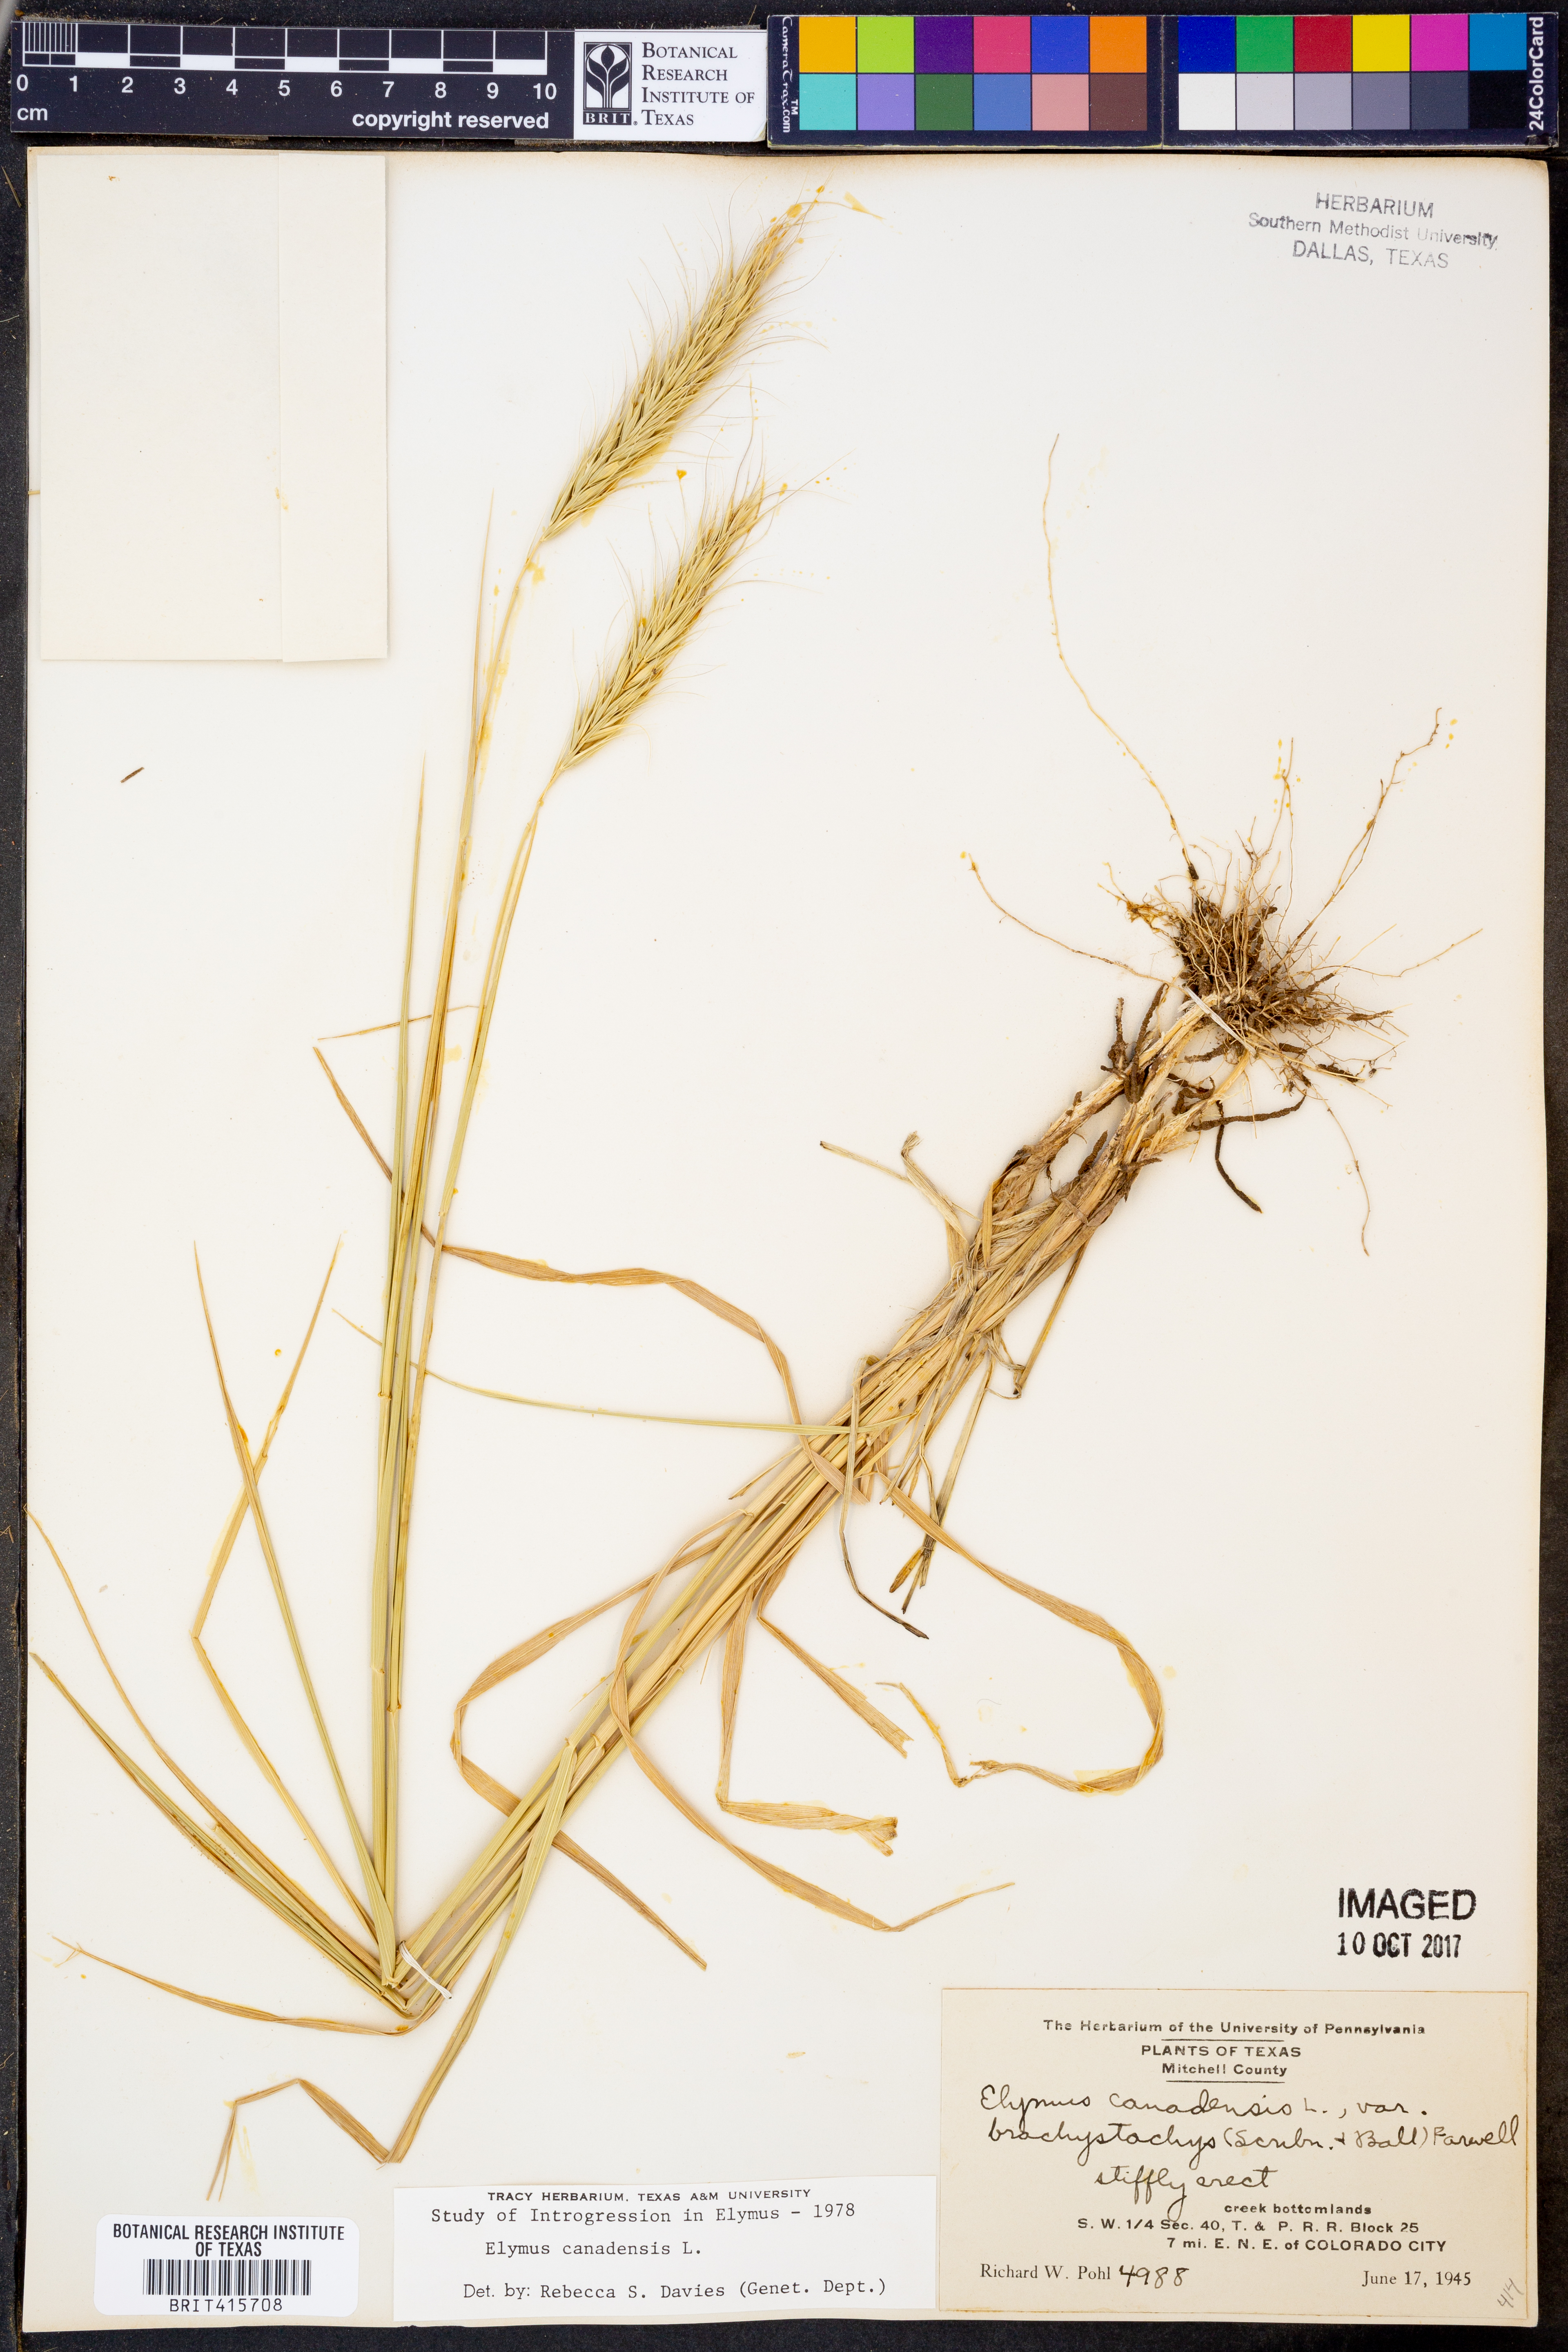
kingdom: Plantae
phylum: Tracheophyta
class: Liliopsida
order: Poales
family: Poaceae
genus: Elymus
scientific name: Elymus canadensis
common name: Canada wild rye
